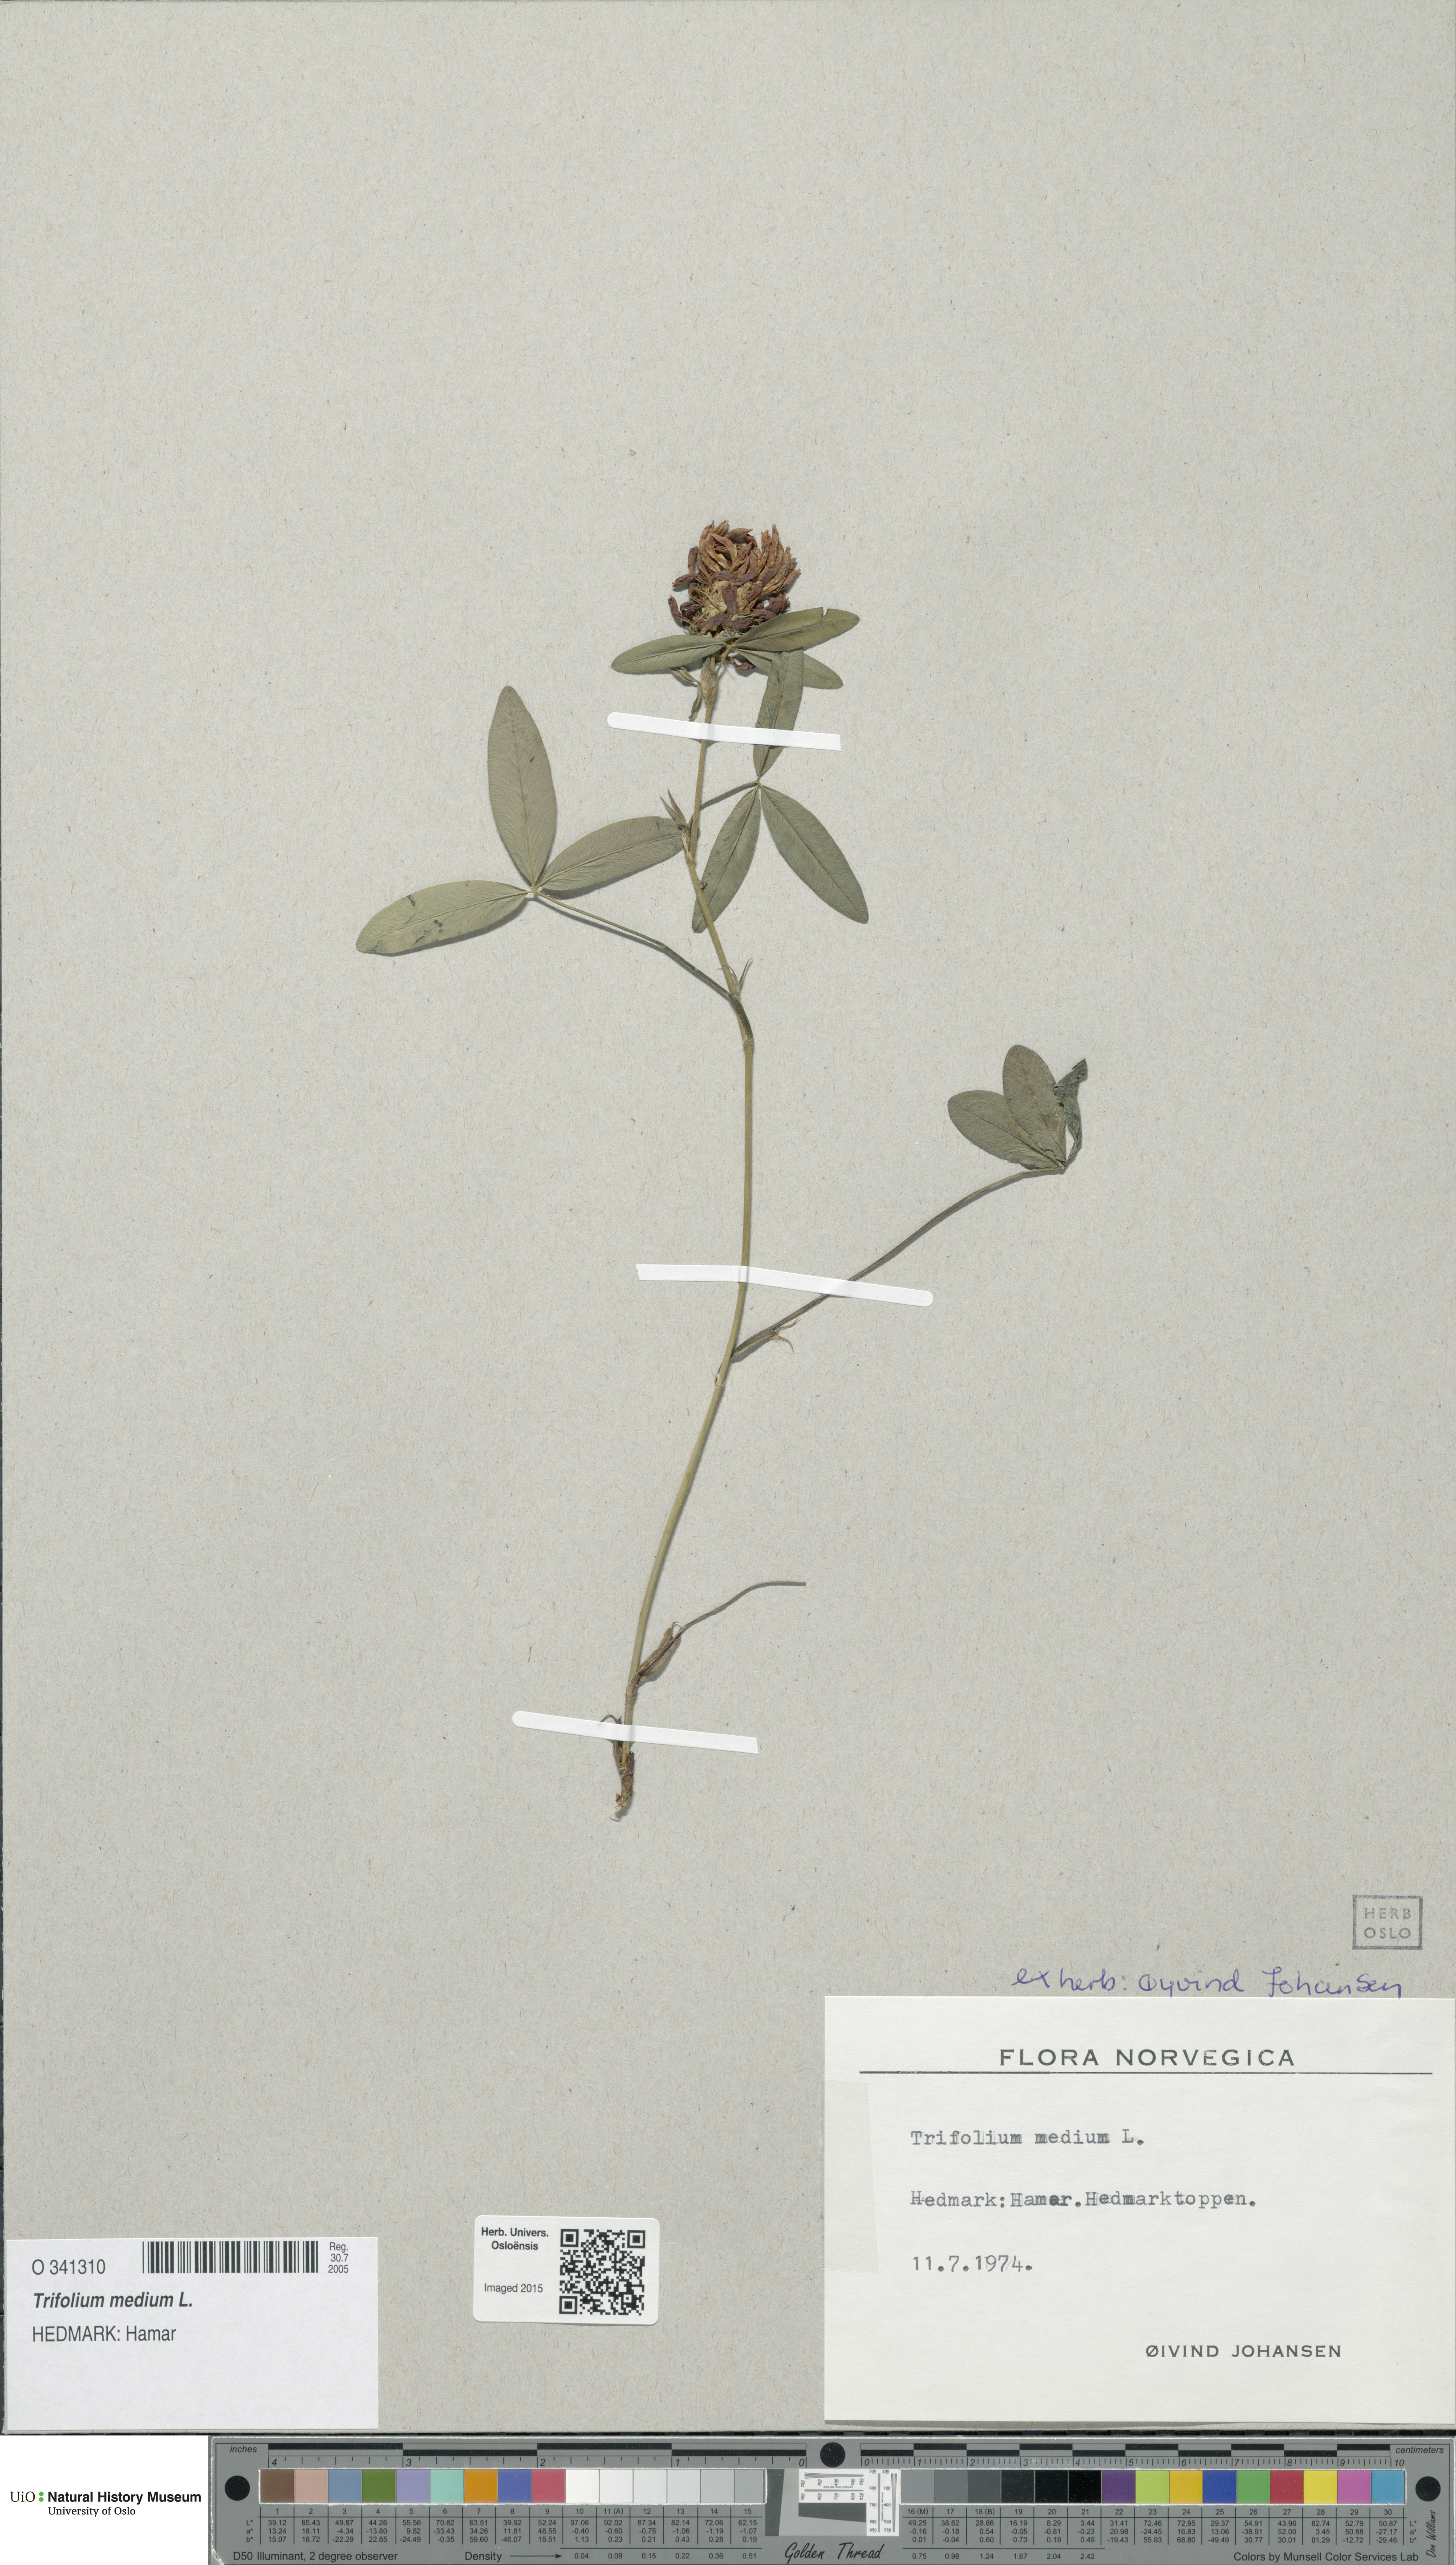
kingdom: Plantae
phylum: Tracheophyta
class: Magnoliopsida
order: Fabales
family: Fabaceae
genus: Trifolium
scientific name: Trifolium medium
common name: Zigzag clover
